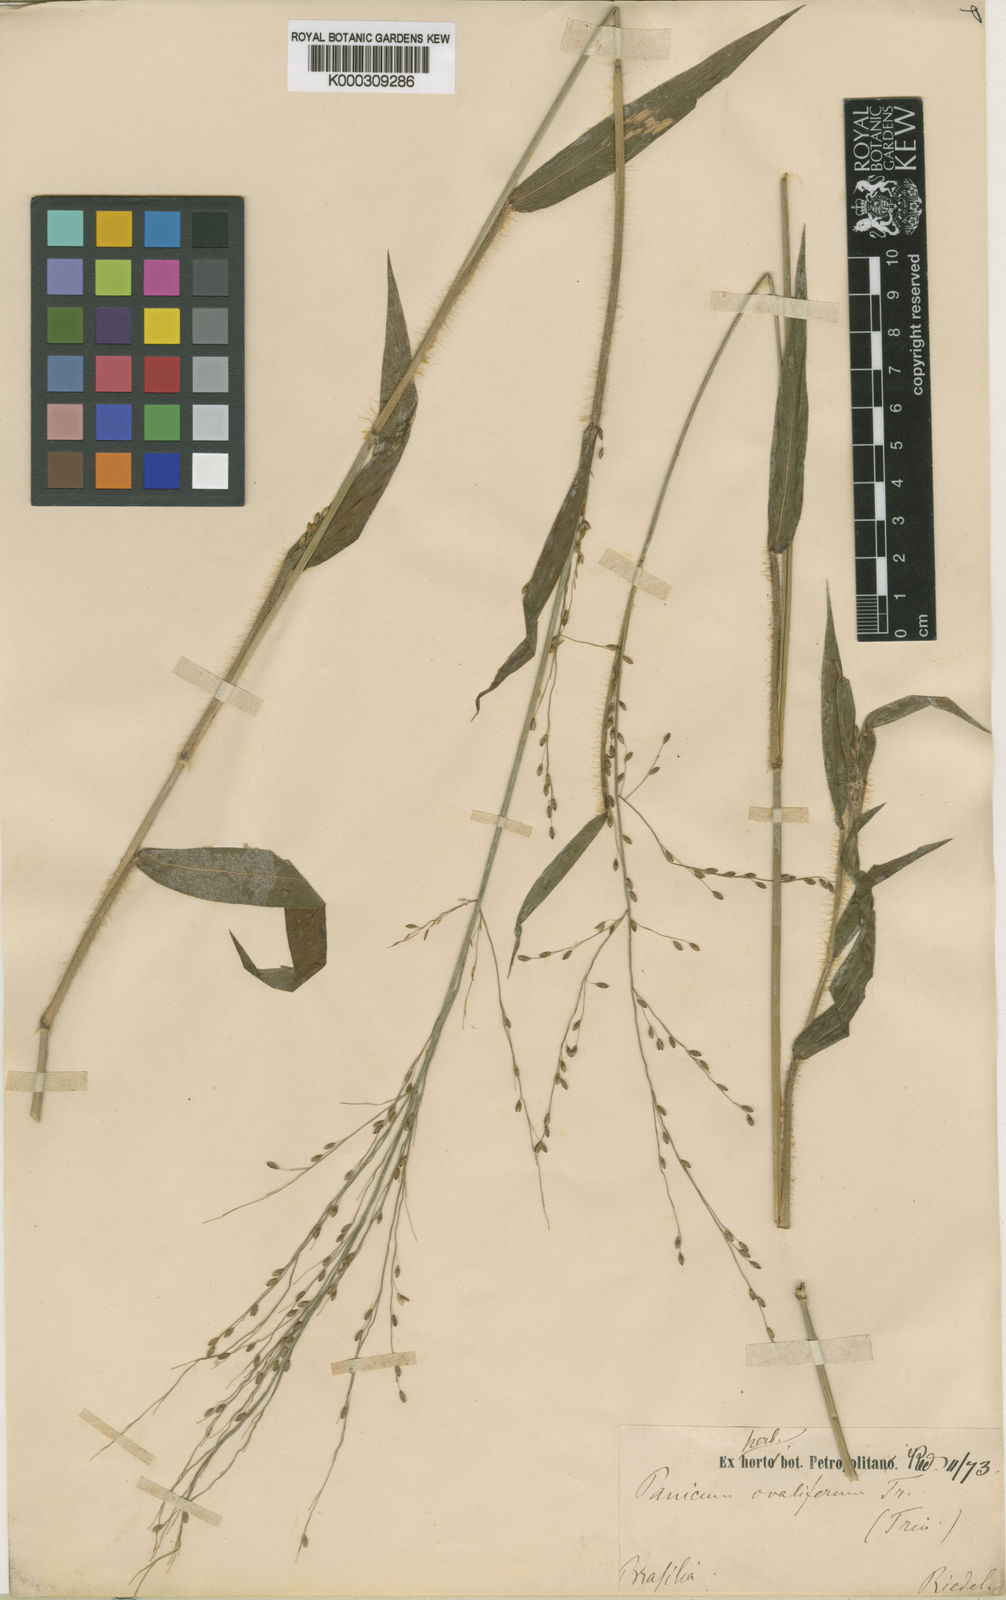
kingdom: Plantae
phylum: Tracheophyta
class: Liliopsida
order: Poales
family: Poaceae
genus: Panicum
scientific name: Panicum
